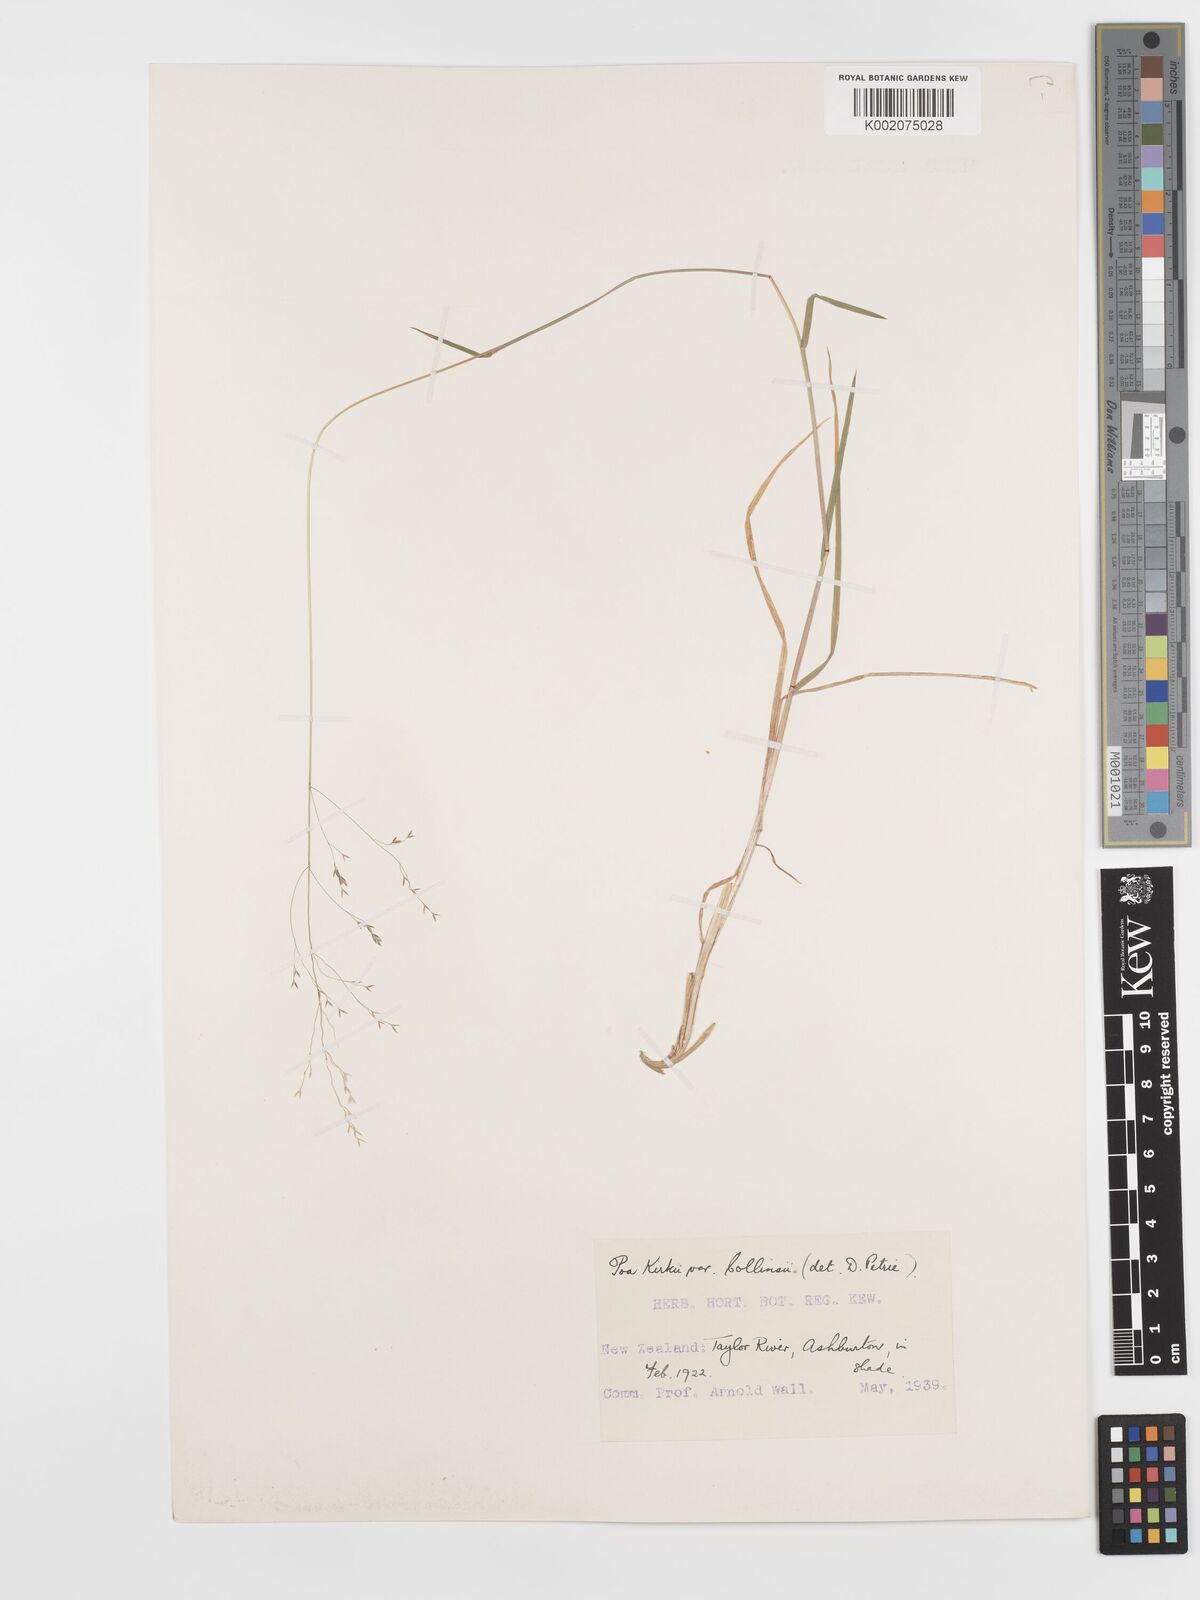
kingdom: Plantae
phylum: Tracheophyta
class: Liliopsida
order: Poales
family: Poaceae
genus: Poa
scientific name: Poa kirkii
